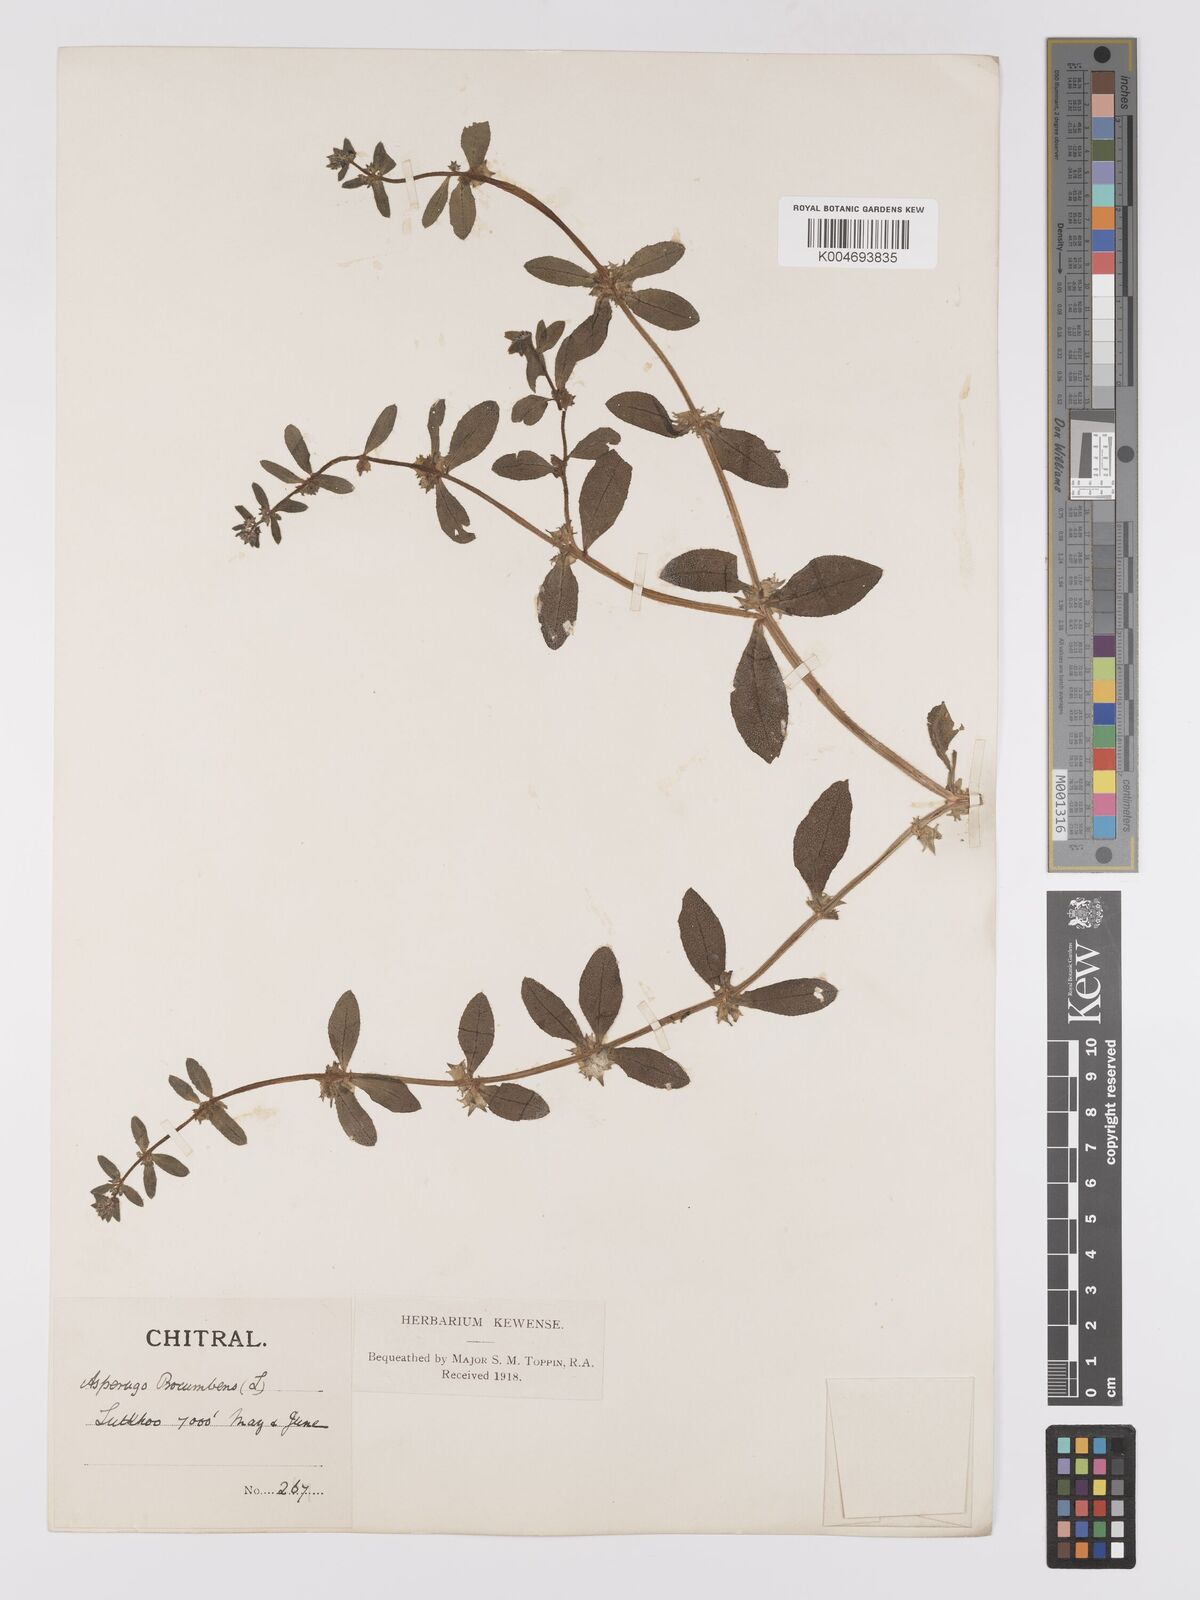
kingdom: Plantae
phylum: Tracheophyta
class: Magnoliopsida
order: Boraginales
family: Boraginaceae
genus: Asperugo
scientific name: Asperugo procumbens
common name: Madwort
